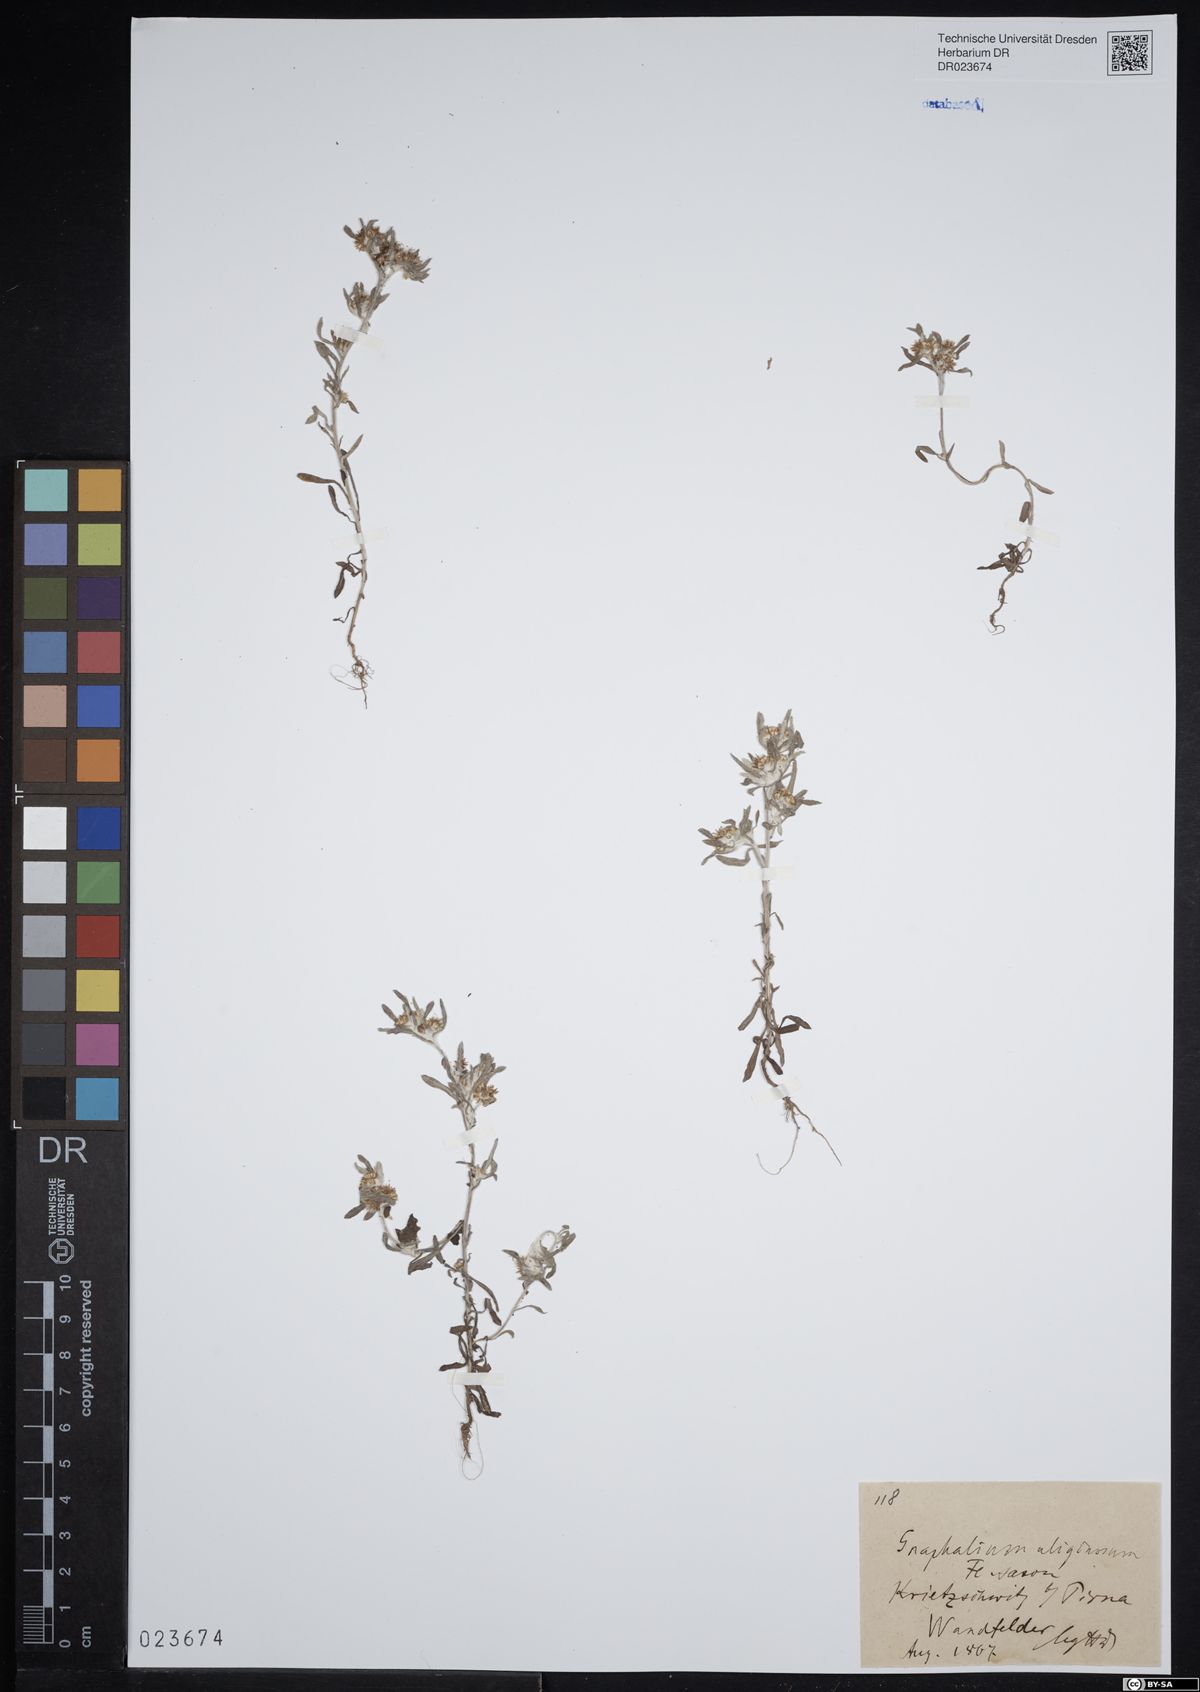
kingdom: Plantae
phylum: Tracheophyta
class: Magnoliopsida
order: Asterales
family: Asteraceae
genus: Gnaphalium
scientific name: Gnaphalium uliginosum
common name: Marsh cudweed
